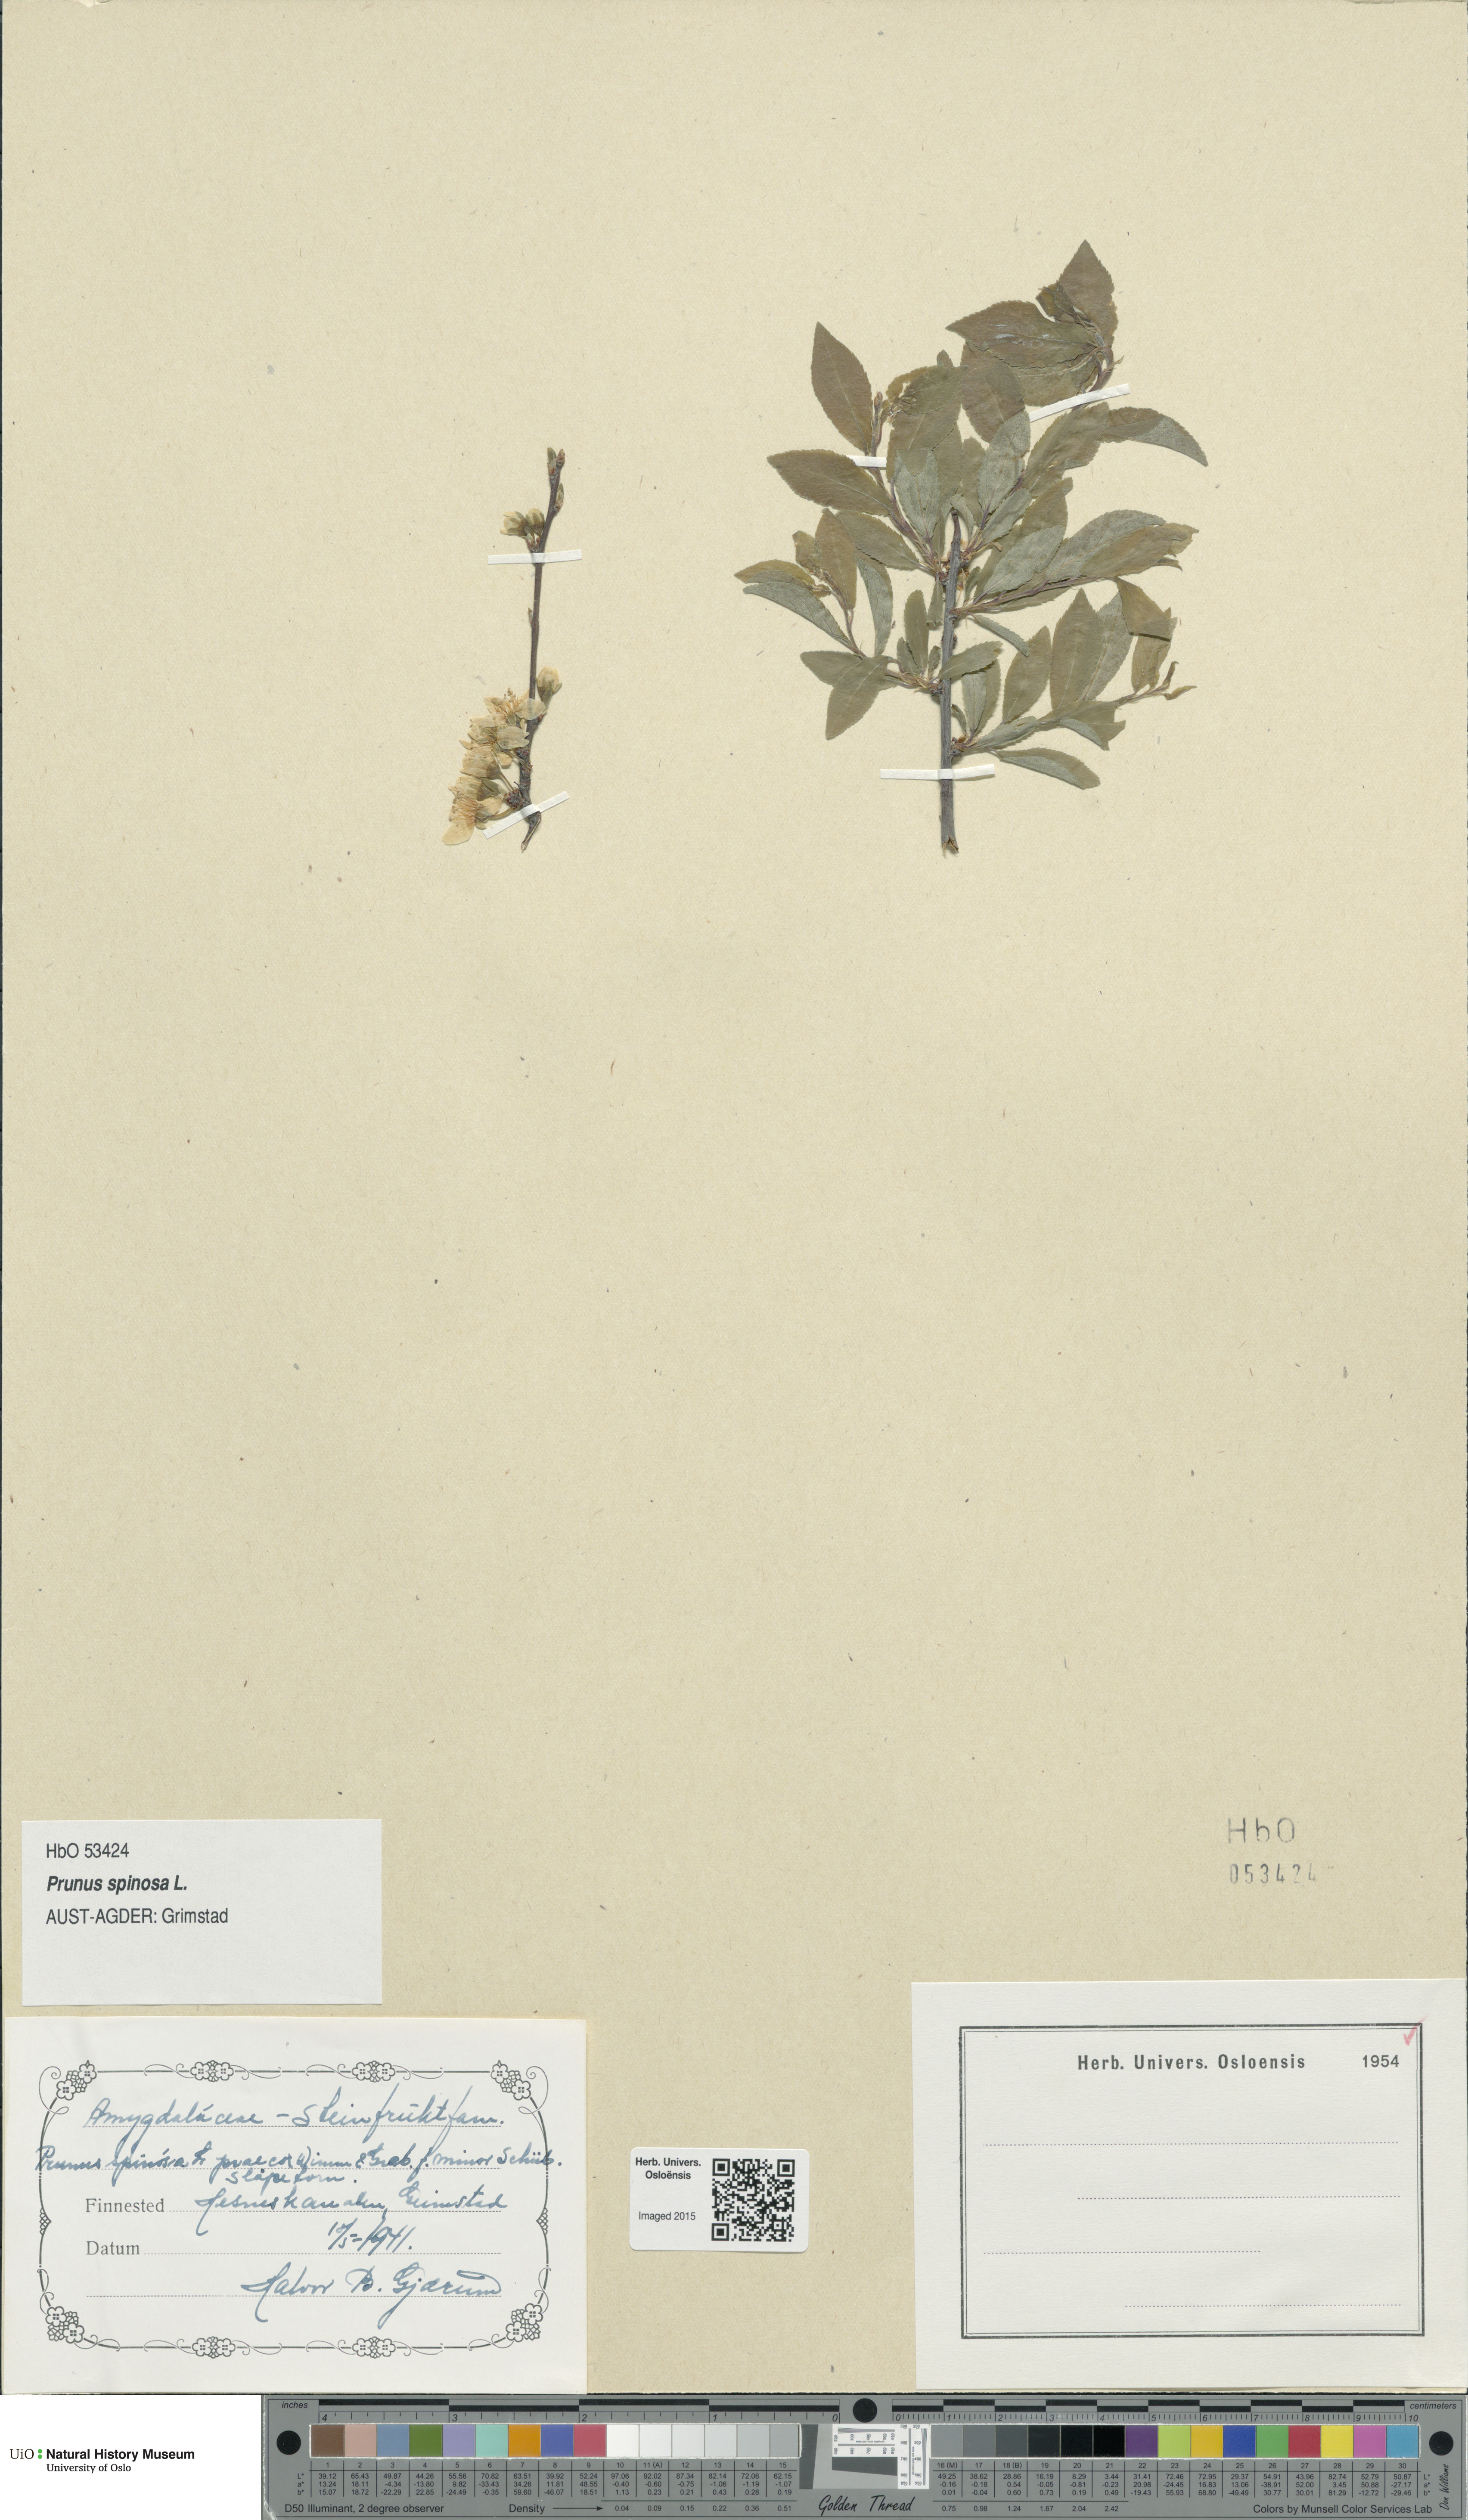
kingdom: Plantae
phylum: Tracheophyta
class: Magnoliopsida
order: Rosales
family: Rosaceae
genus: Prunus
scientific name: Prunus spinosa
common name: Blackthorn
